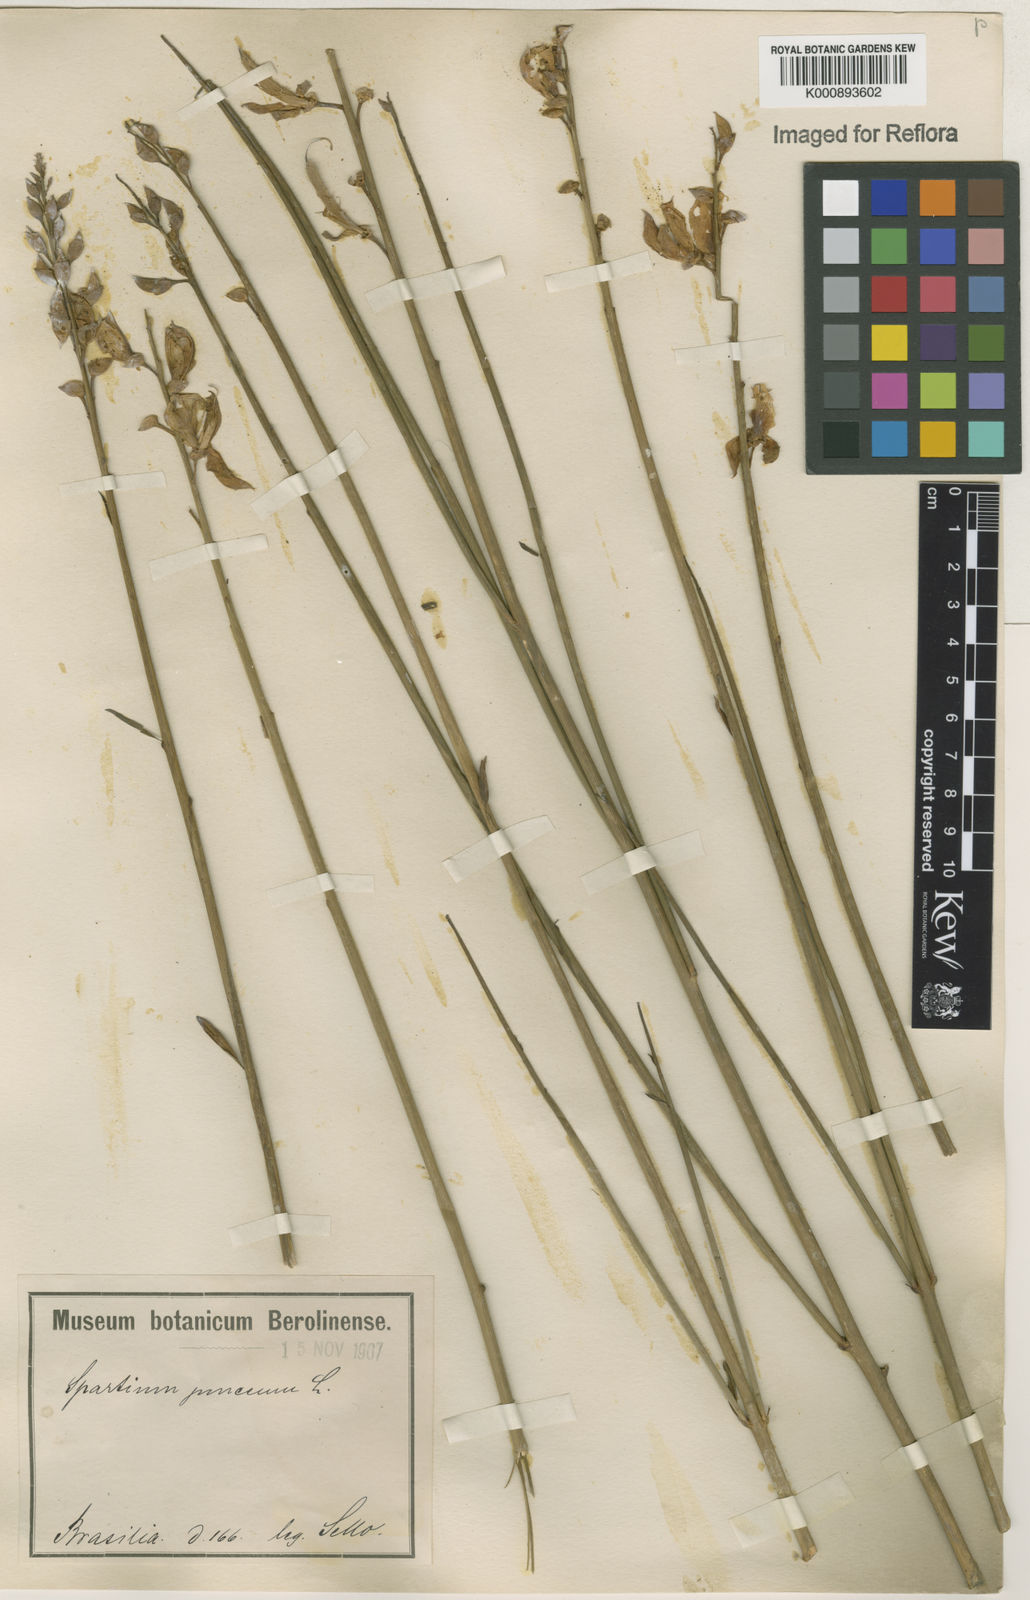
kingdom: Plantae
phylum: Tracheophyta
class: Magnoliopsida
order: Fabales
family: Fabaceae
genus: Spartium
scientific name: Spartium junceum
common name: Spanish broom
